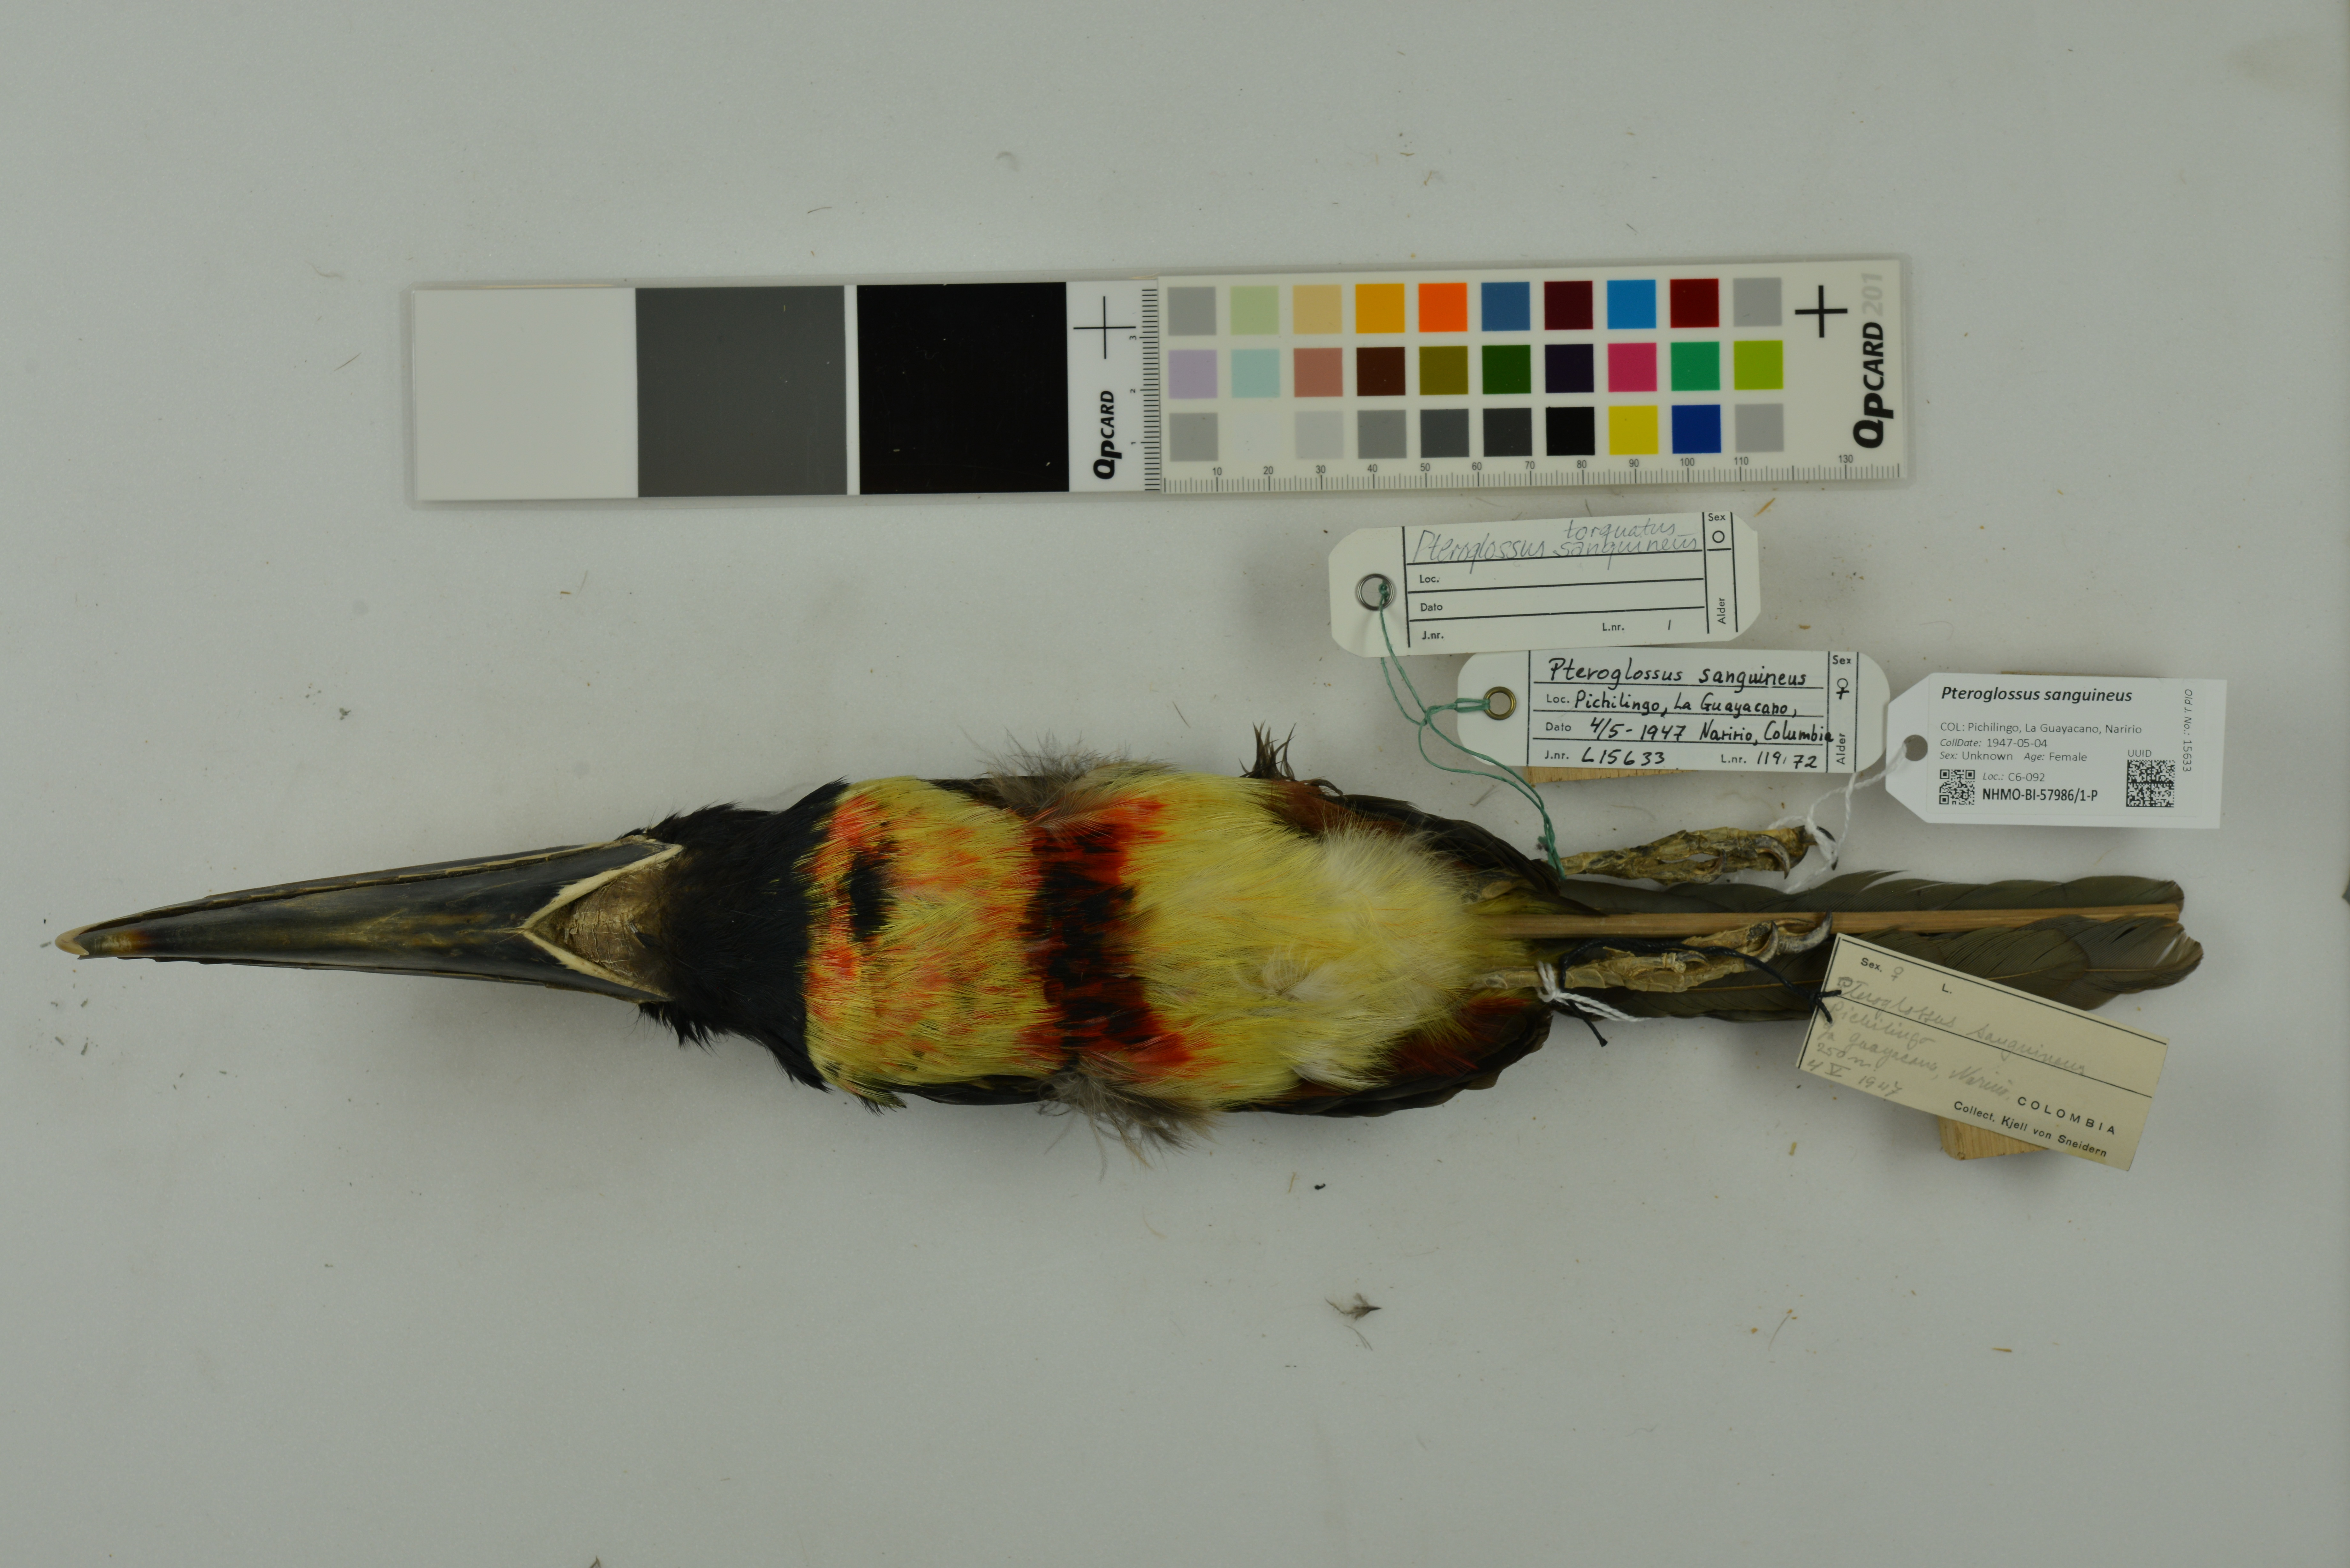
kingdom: Animalia
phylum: Chordata
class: Aves
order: Piciformes
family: Ramphastidae
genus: Pteroglossus
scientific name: Pteroglossus sanguineus
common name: Stripe-billed aracari
